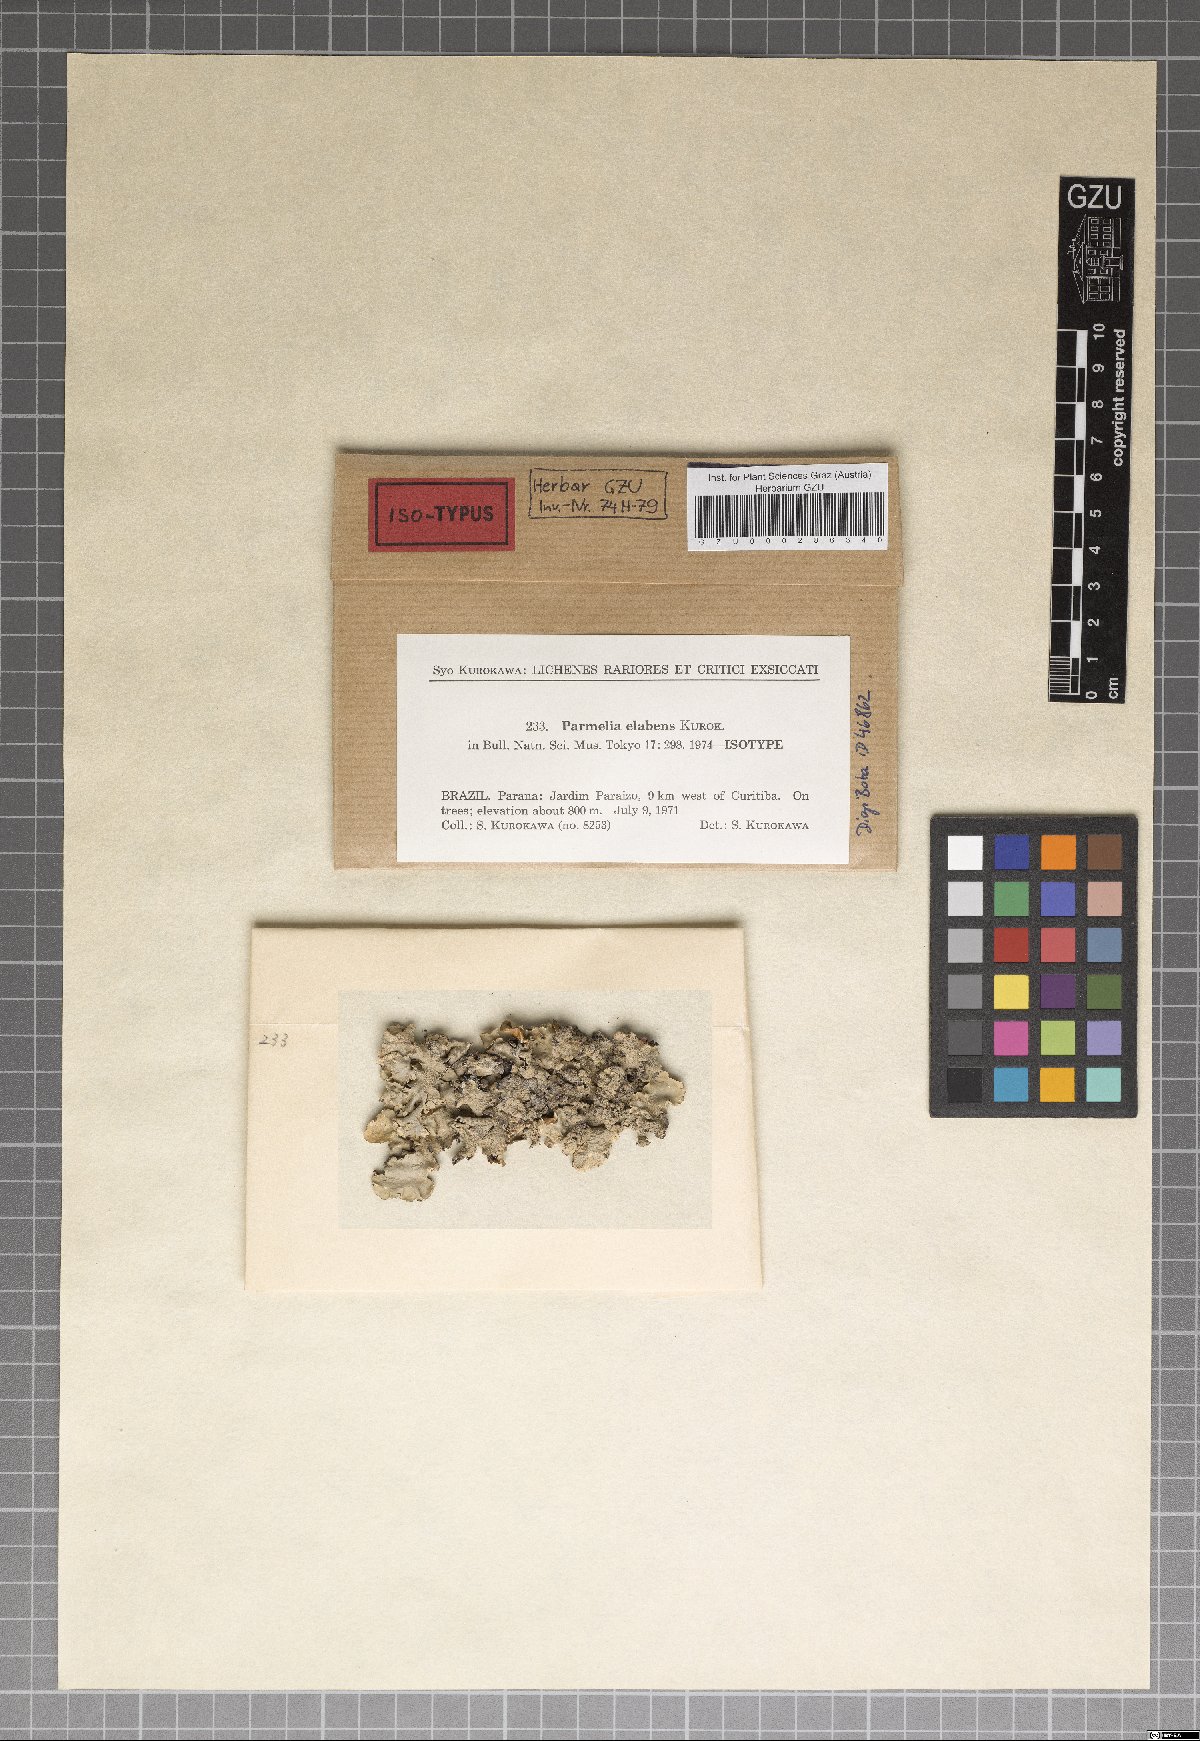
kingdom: Fungi
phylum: Ascomycota
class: Lecanoromycetes
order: Lecanorales
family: Parmeliaceae
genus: Parmelinella
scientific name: Parmelinella
